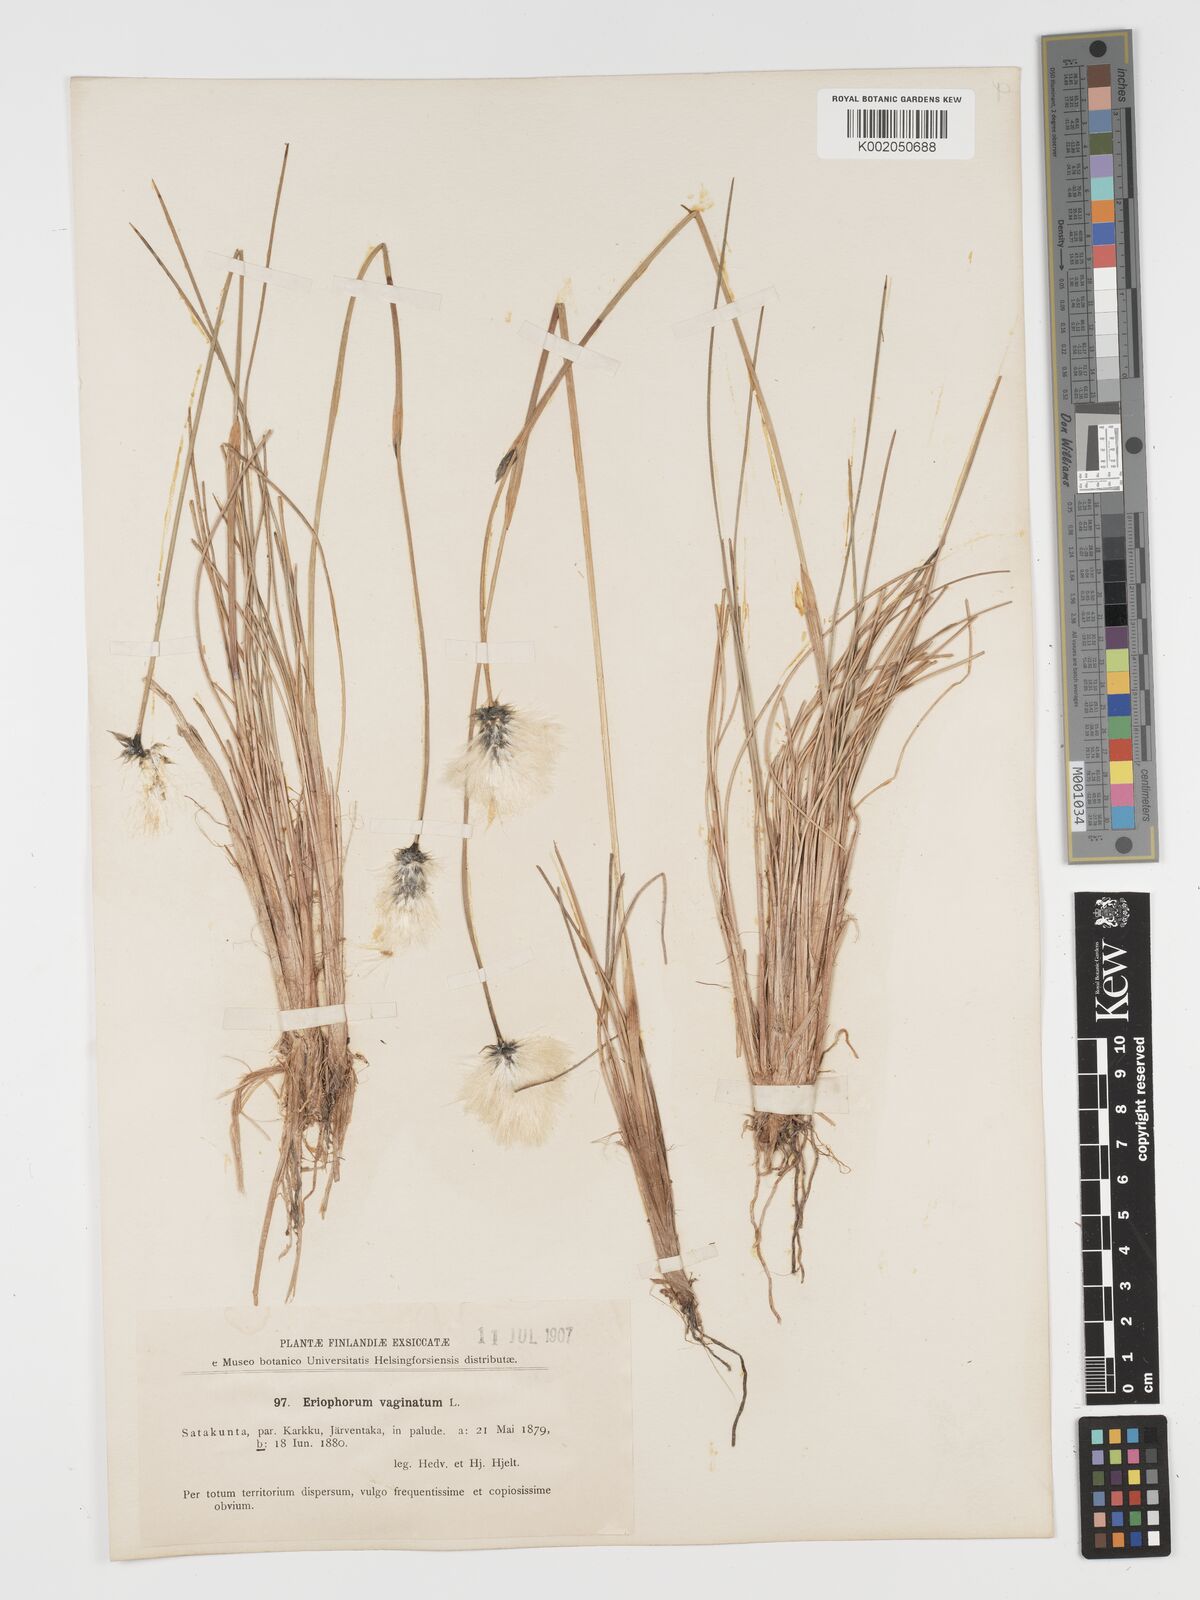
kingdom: Plantae
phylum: Tracheophyta
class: Liliopsida
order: Poales
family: Cyperaceae
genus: Eriophorum
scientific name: Eriophorum vaginatum
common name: Hare's-tail cottongrass
